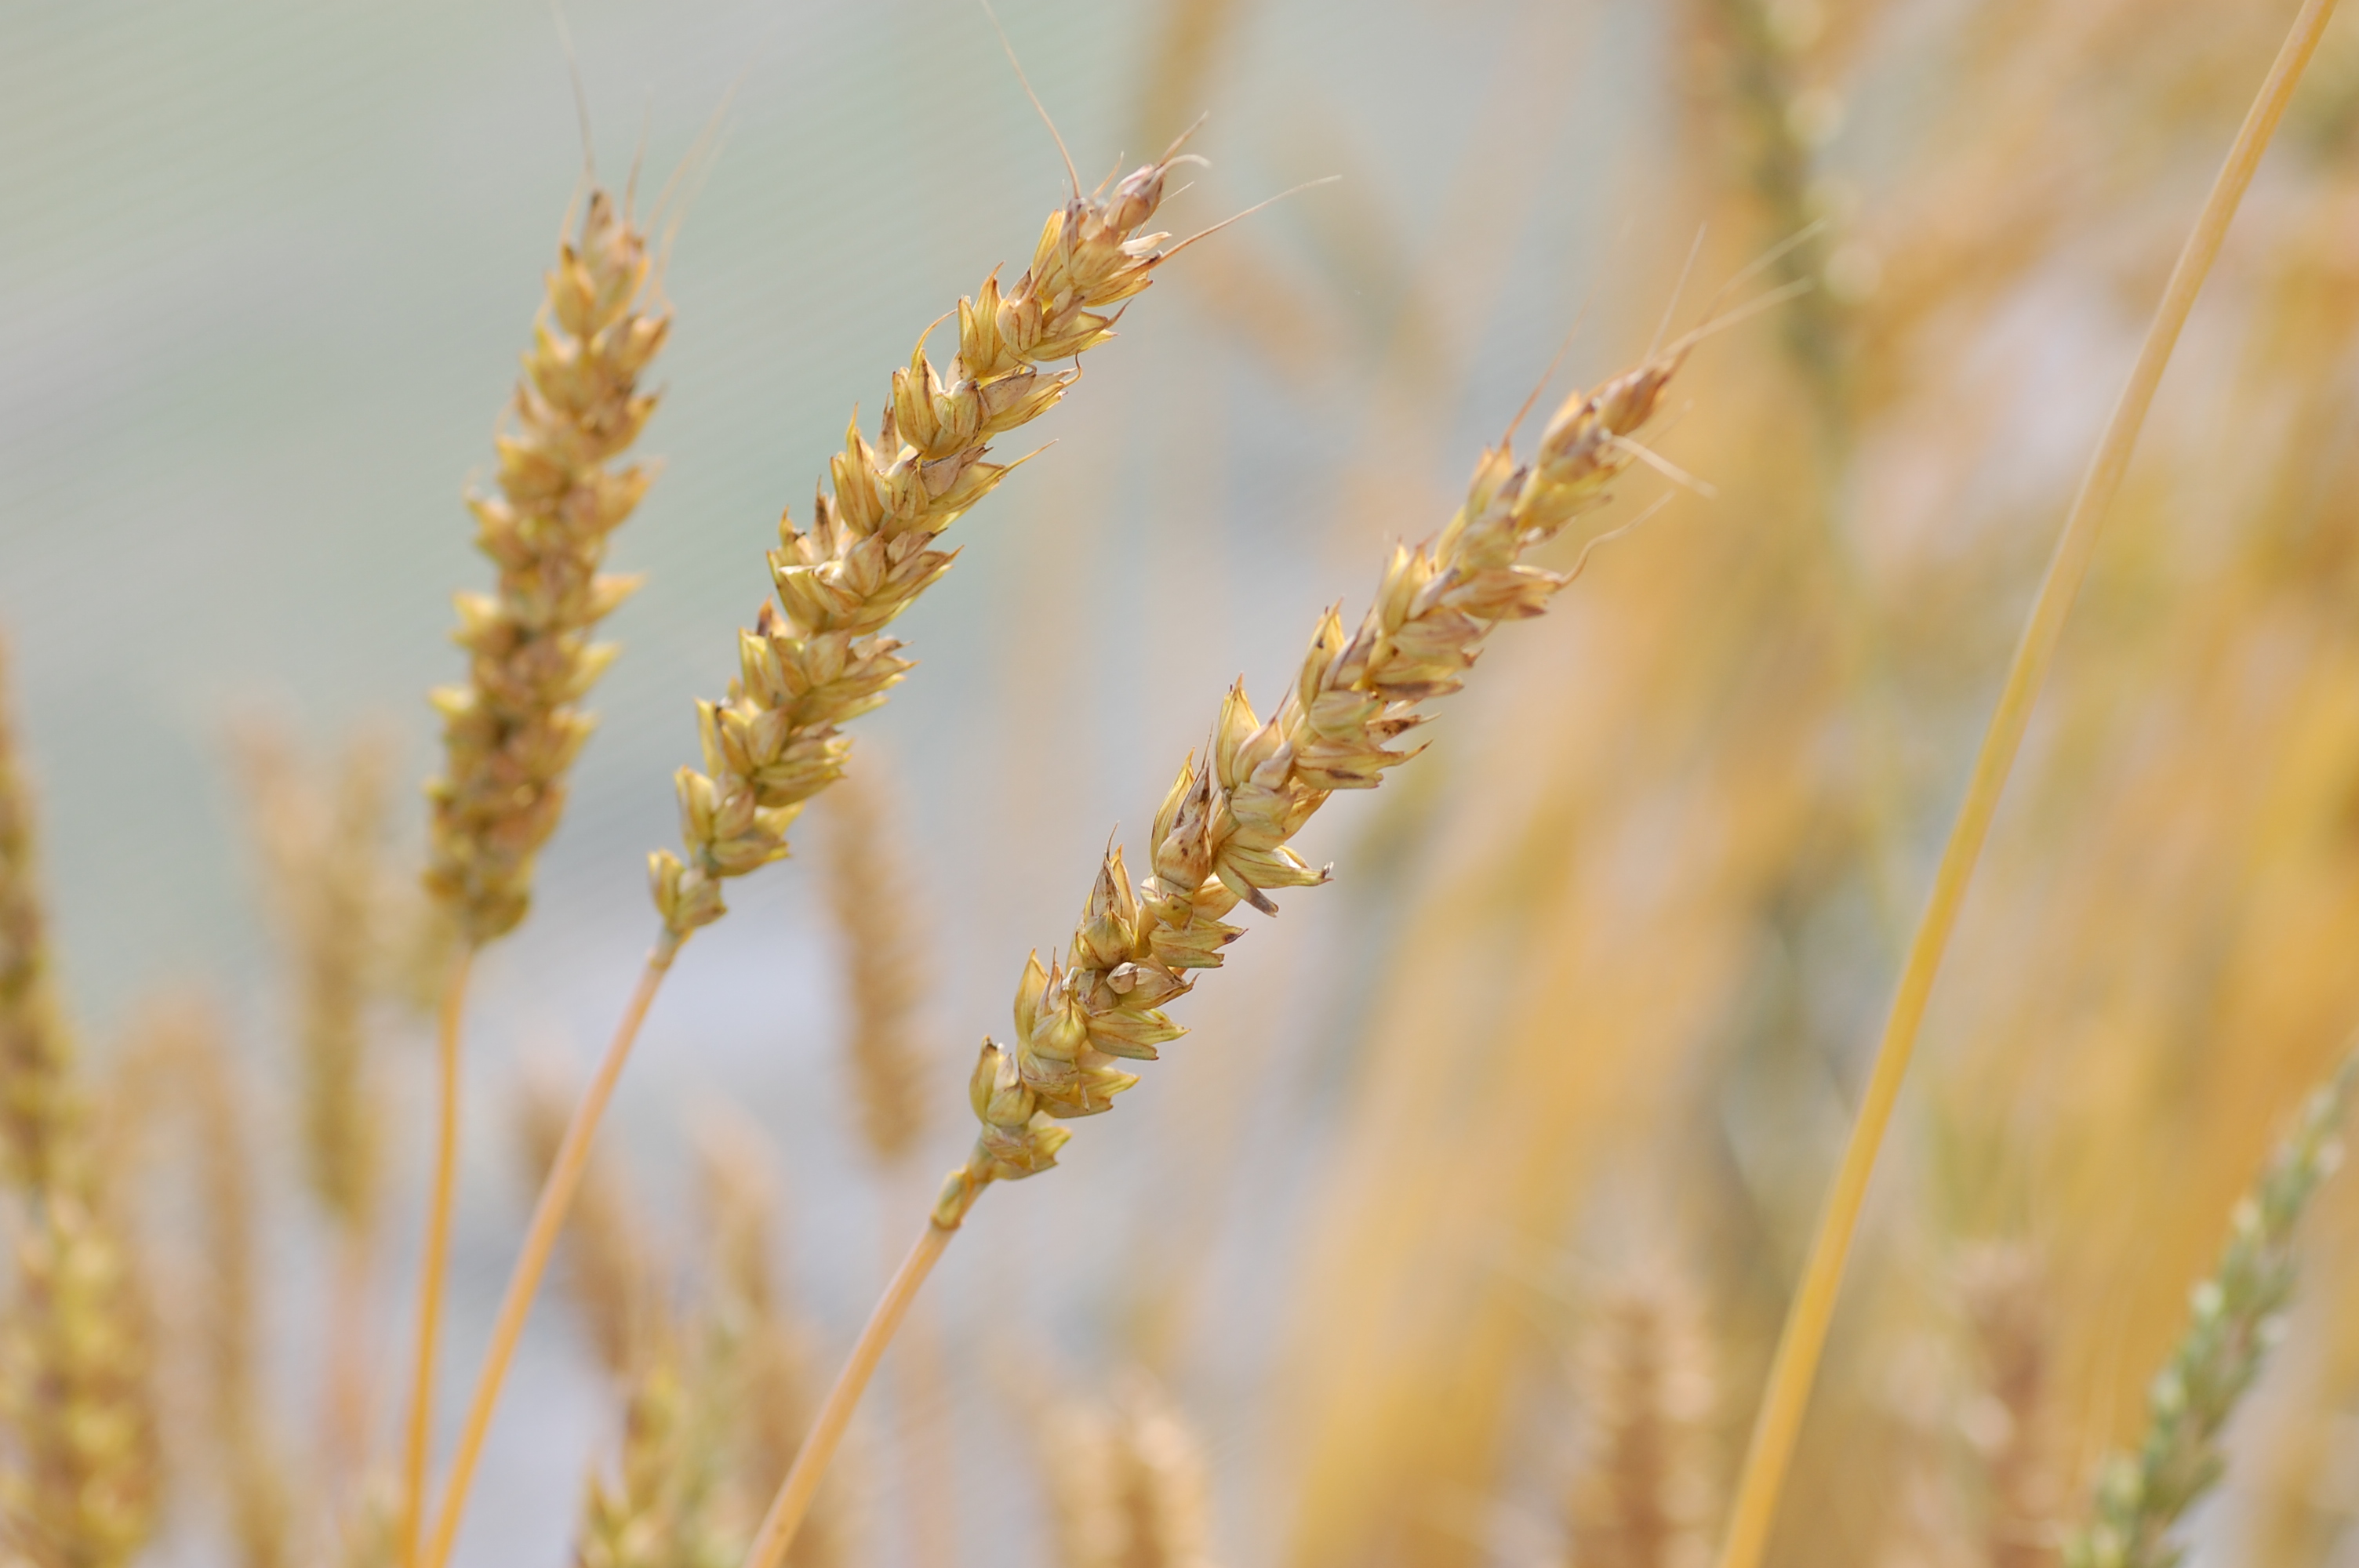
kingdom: Plantae
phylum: Tracheophyta
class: Liliopsida
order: Poales
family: Poaceae
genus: Triticum
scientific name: Triticum aestivum
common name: Common wheat
